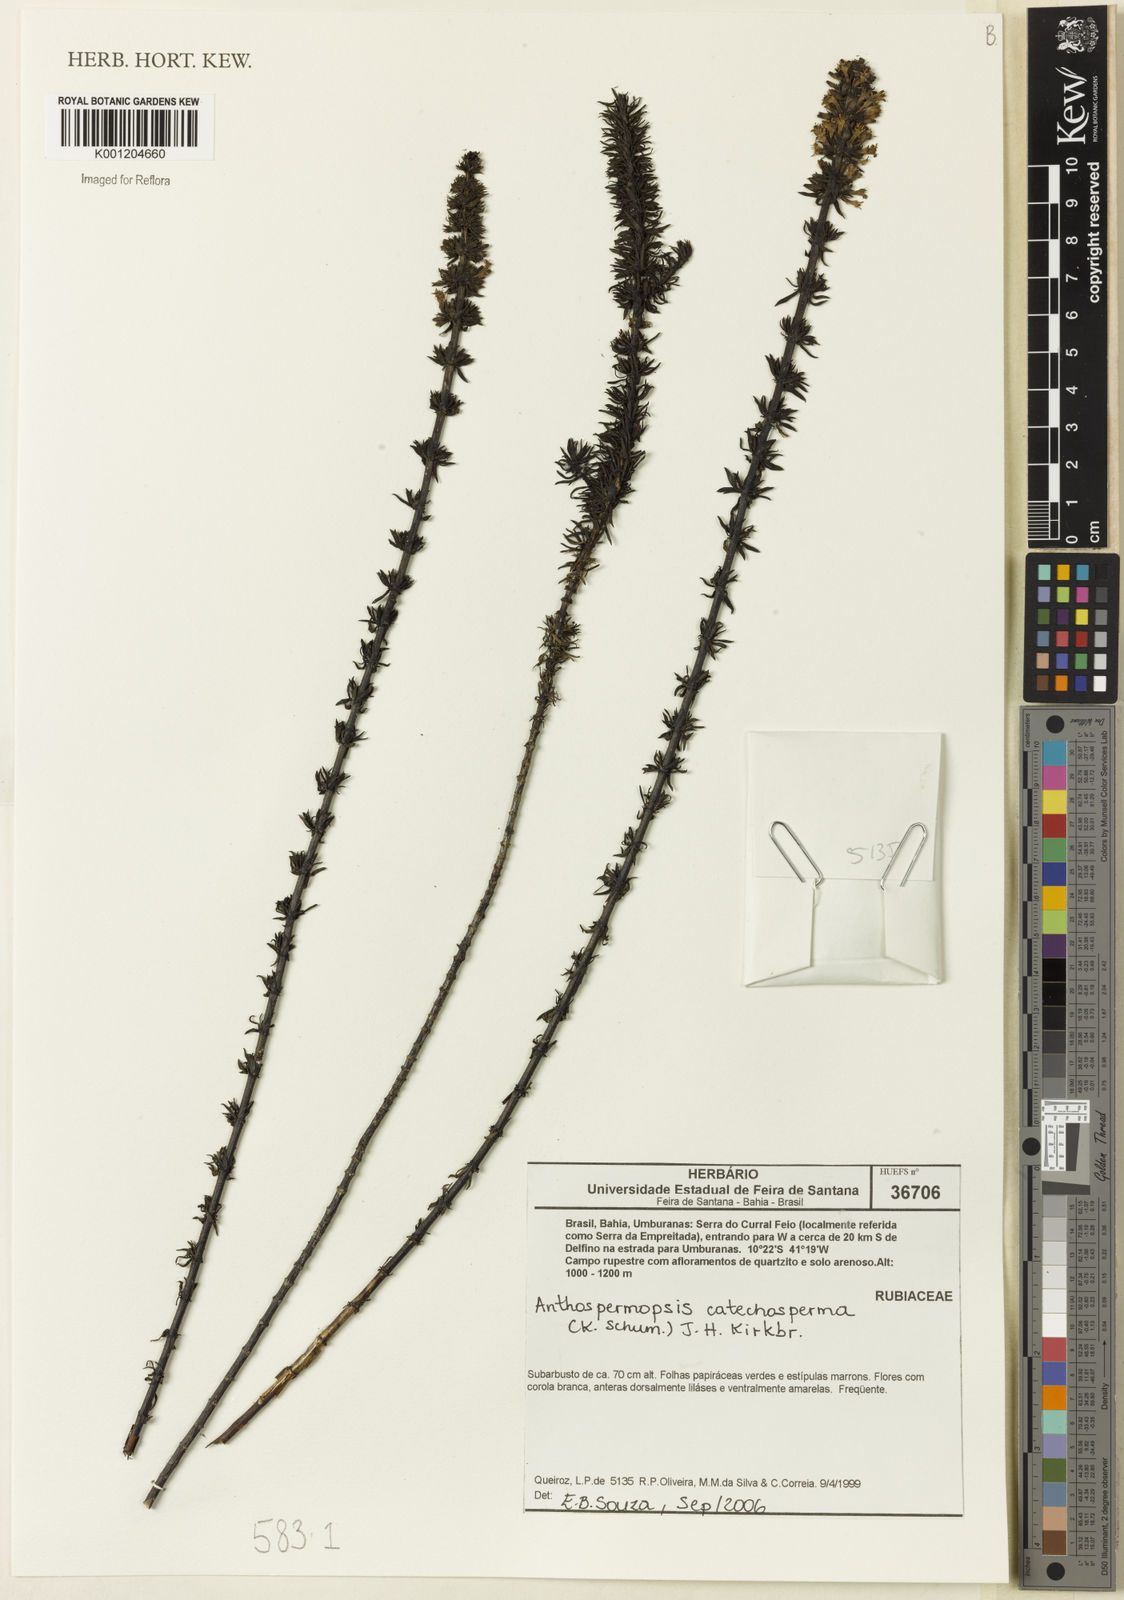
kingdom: Plantae
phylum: Tracheophyta
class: Magnoliopsida
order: Gentianales
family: Rubiaceae
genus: Staelia
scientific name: Staelia glandulosa
